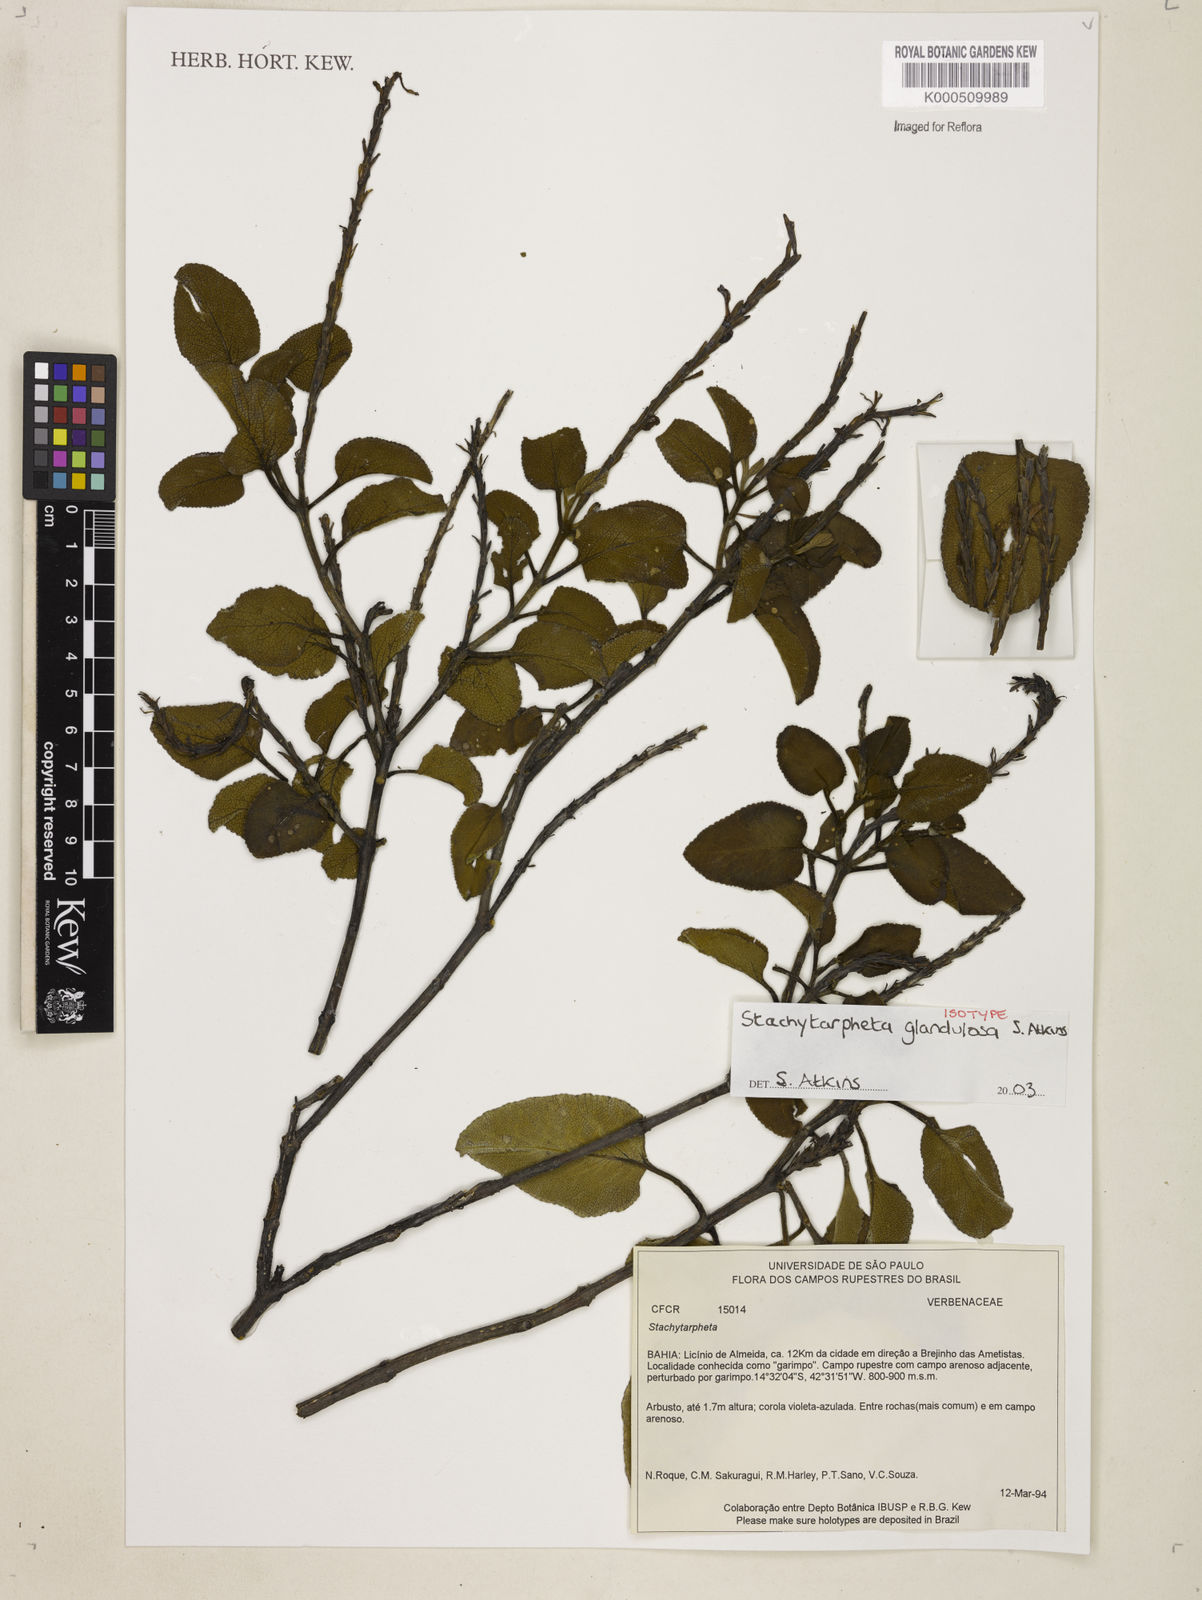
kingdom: Plantae
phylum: Tracheophyta
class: Magnoliopsida
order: Lamiales
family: Verbenaceae
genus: Stachytarpheta
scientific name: Stachytarpheta glandulosa
